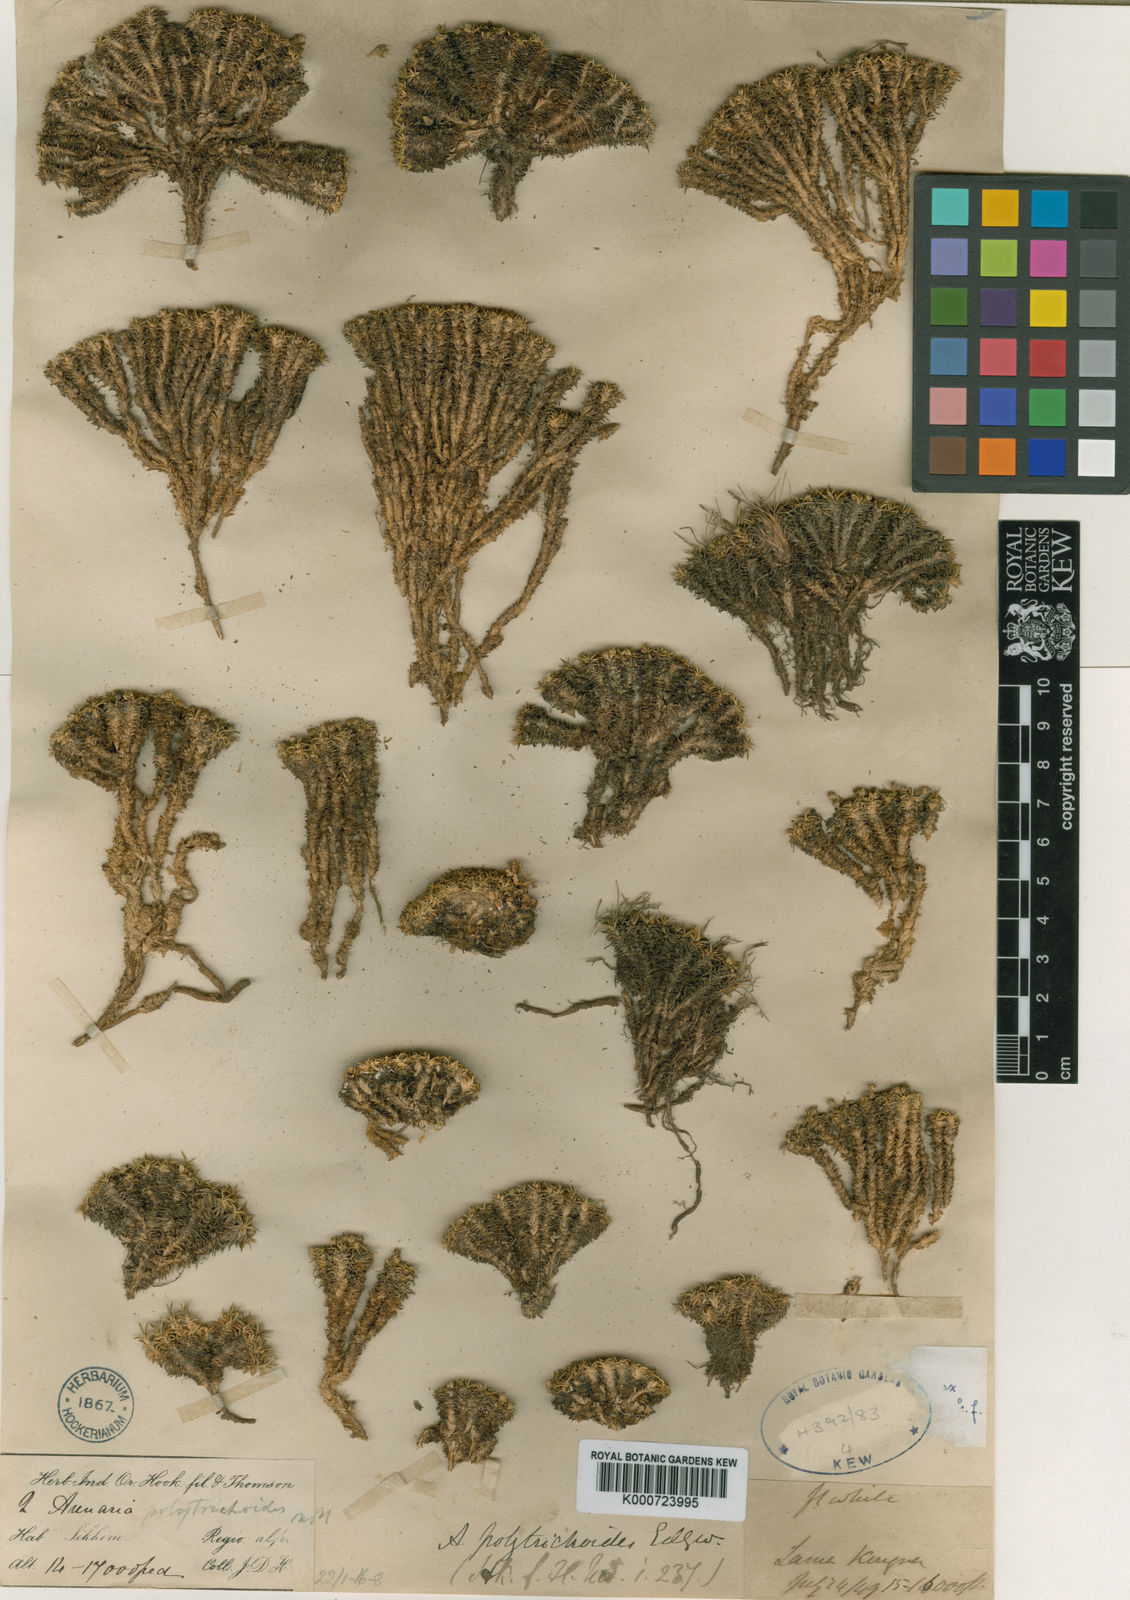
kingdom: Plantae
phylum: Tracheophyta
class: Magnoliopsida
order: Caryophyllales
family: Caryophyllaceae
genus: Arenaria
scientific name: Arenaria polytrichoides
